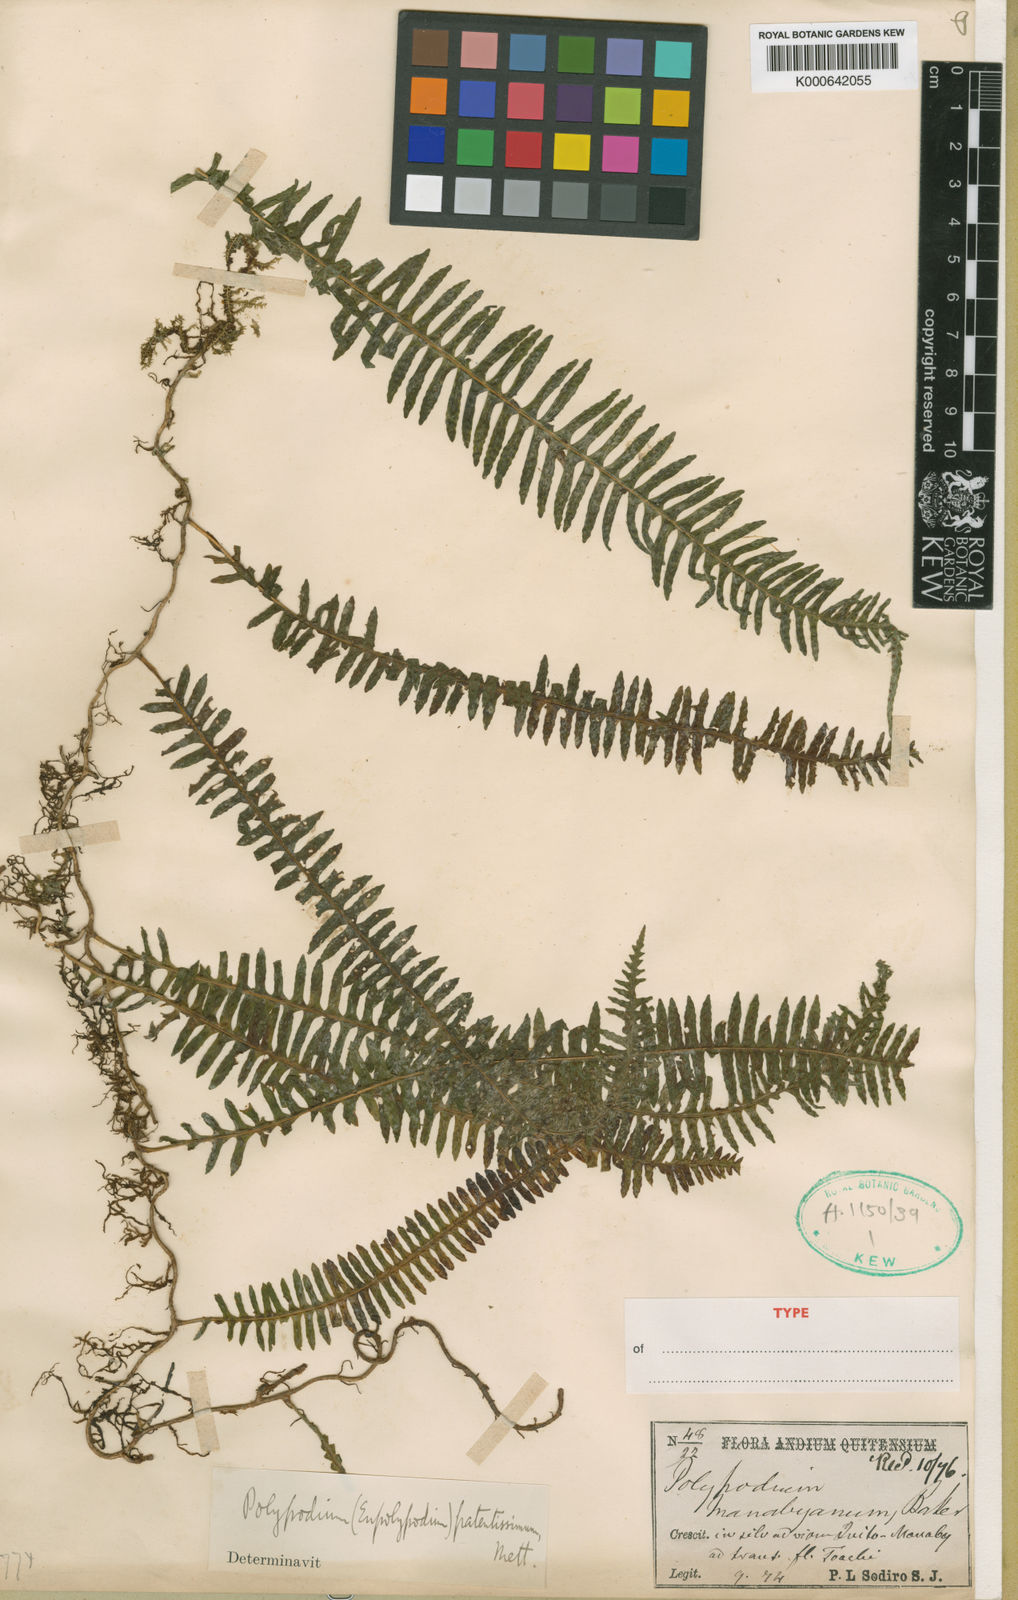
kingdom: Plantae
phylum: Tracheophyta
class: Polypodiopsida
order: Polypodiales
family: Polypodiaceae
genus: Serpocaulon
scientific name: Serpocaulon patentissimum
